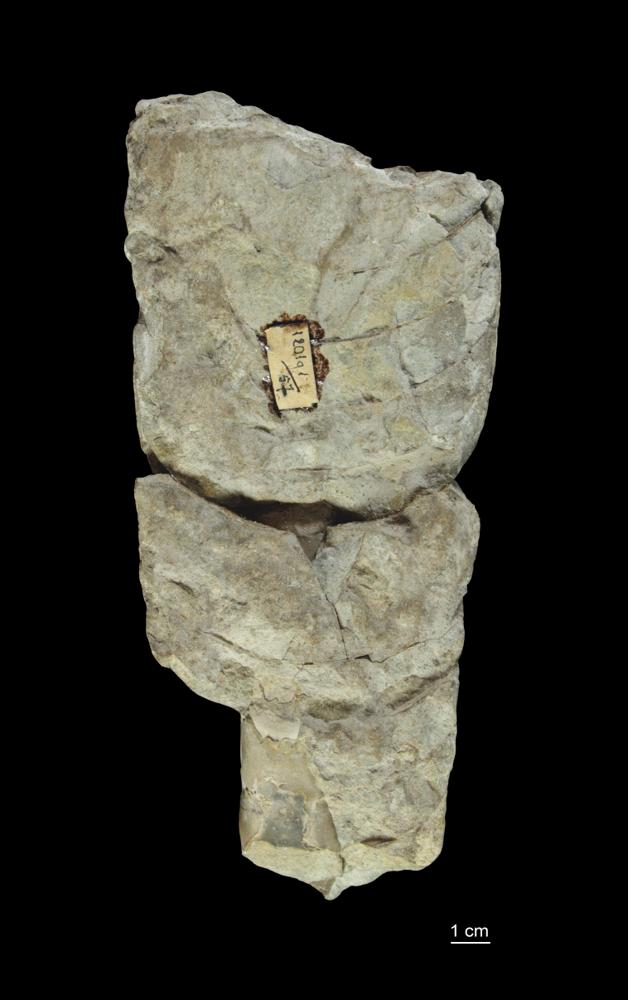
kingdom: Animalia
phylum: Mollusca
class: Cephalopoda
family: Endoceratidae
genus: Proterovaginoceras
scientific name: Proterovaginoceras Endoceras incognitum
